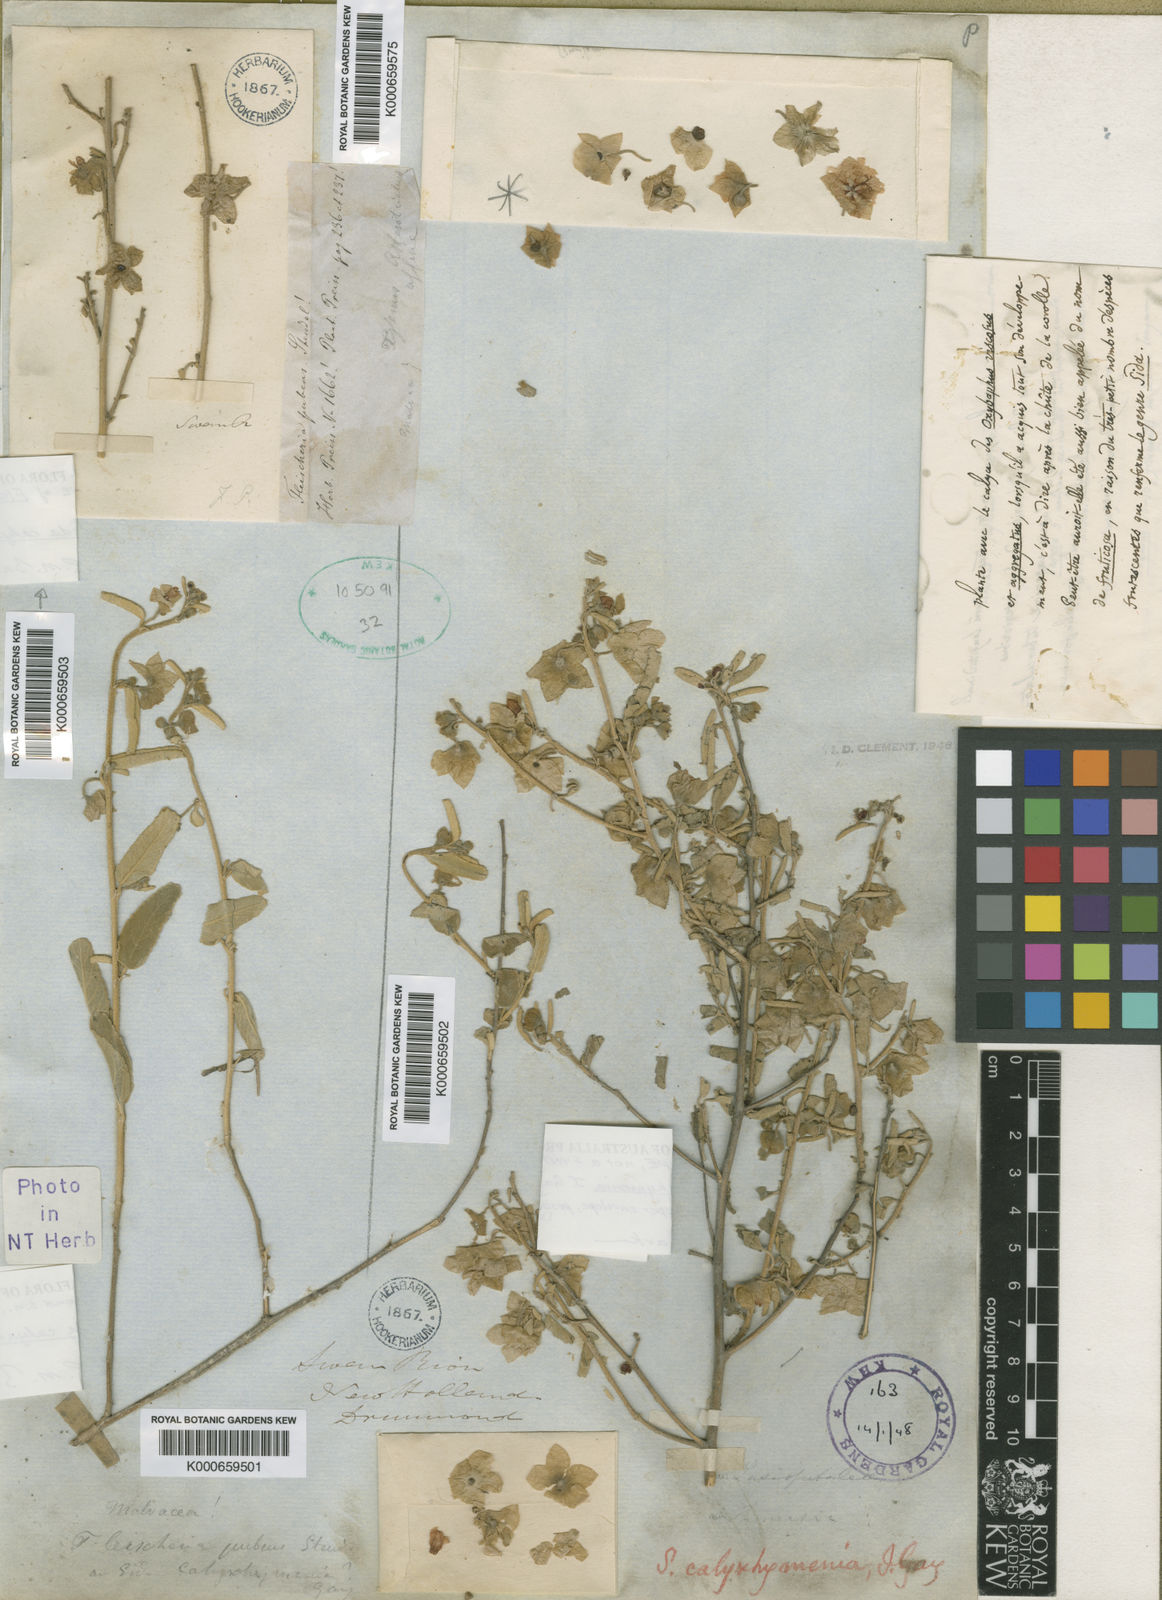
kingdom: Plantae
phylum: Tracheophyta
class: Magnoliopsida
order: Malvales
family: Malvaceae
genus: Sida
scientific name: Sida
